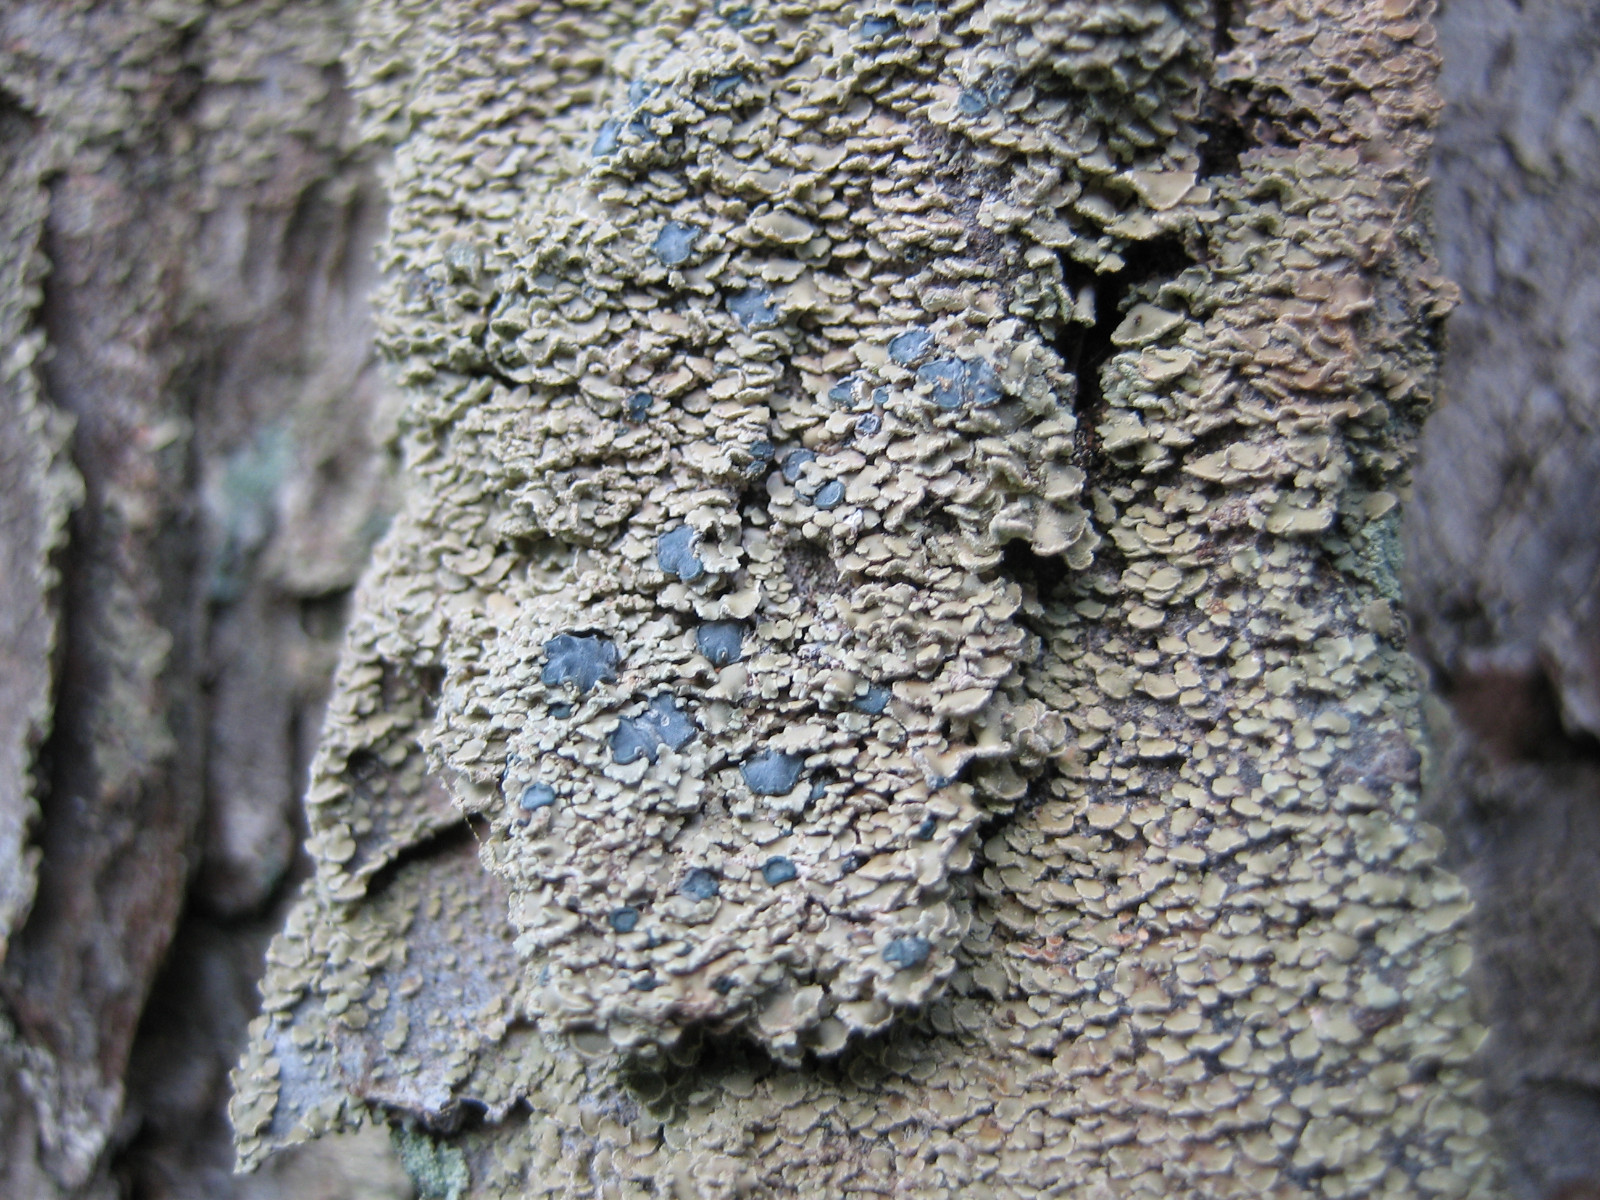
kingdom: Fungi
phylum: Ascomycota
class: Lecanoromycetes
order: Umbilicariales
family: Ophioparmaceae
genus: Hypocenomyce
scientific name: Hypocenomyce scalaris
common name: småskællet muslinglav
